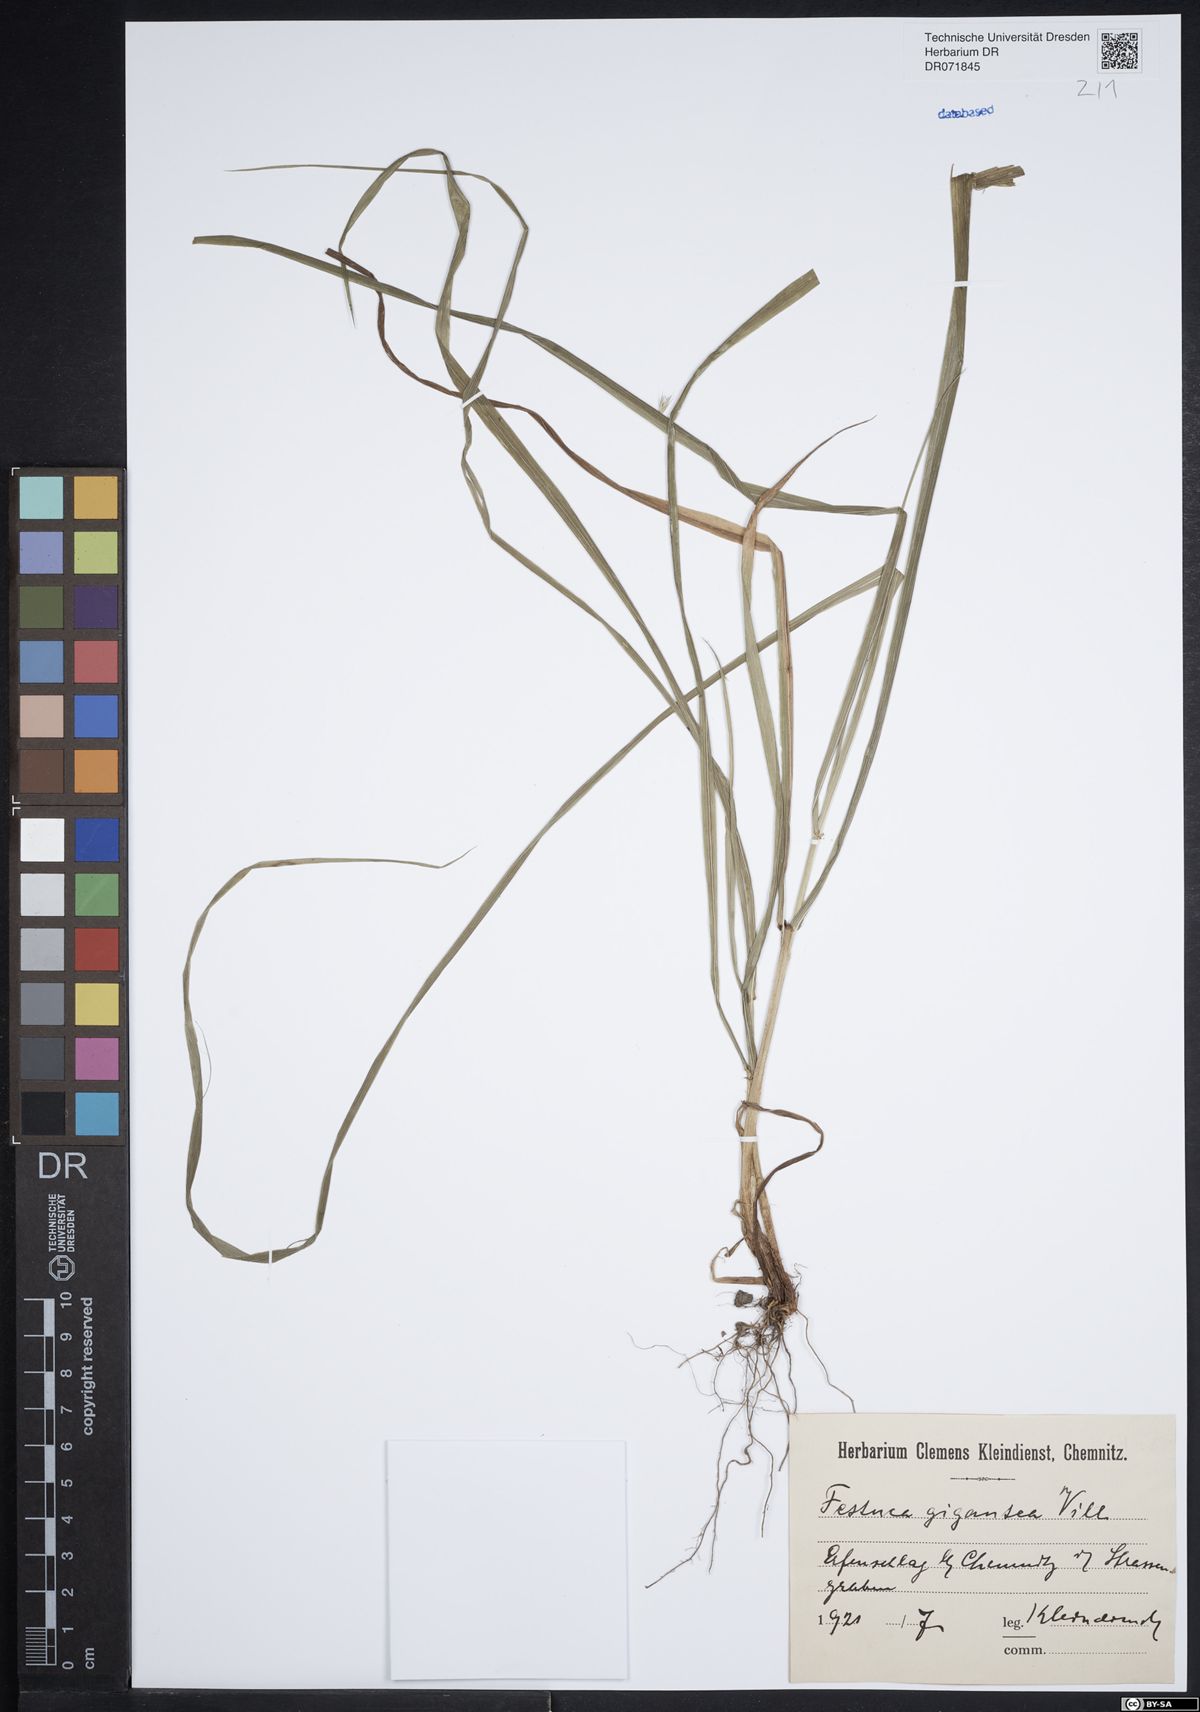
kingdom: Plantae
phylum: Tracheophyta
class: Liliopsida
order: Poales
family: Poaceae
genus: Lolium
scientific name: Lolium giganteum
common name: Giant fescue
